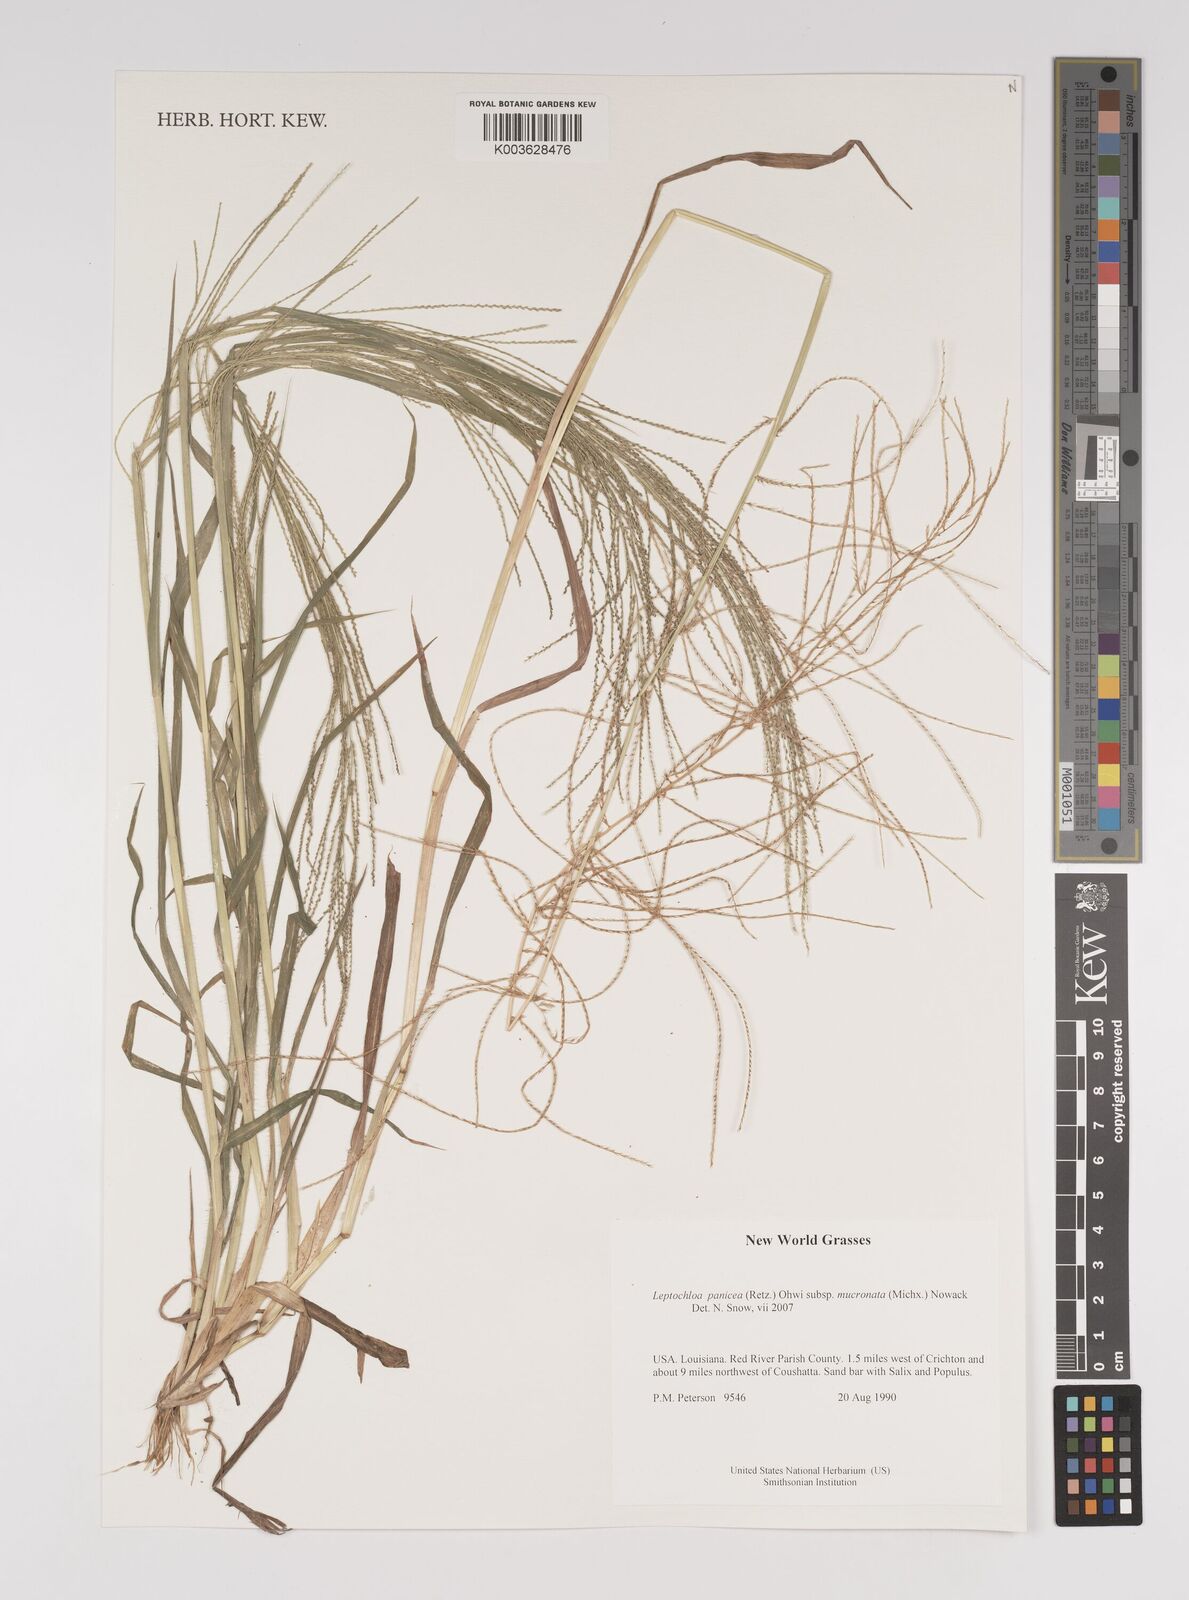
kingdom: Plantae
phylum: Tracheophyta
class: Liliopsida
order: Poales
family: Poaceae
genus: Leptochloa
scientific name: Leptochloa panicea
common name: Mucronate sprangletop
